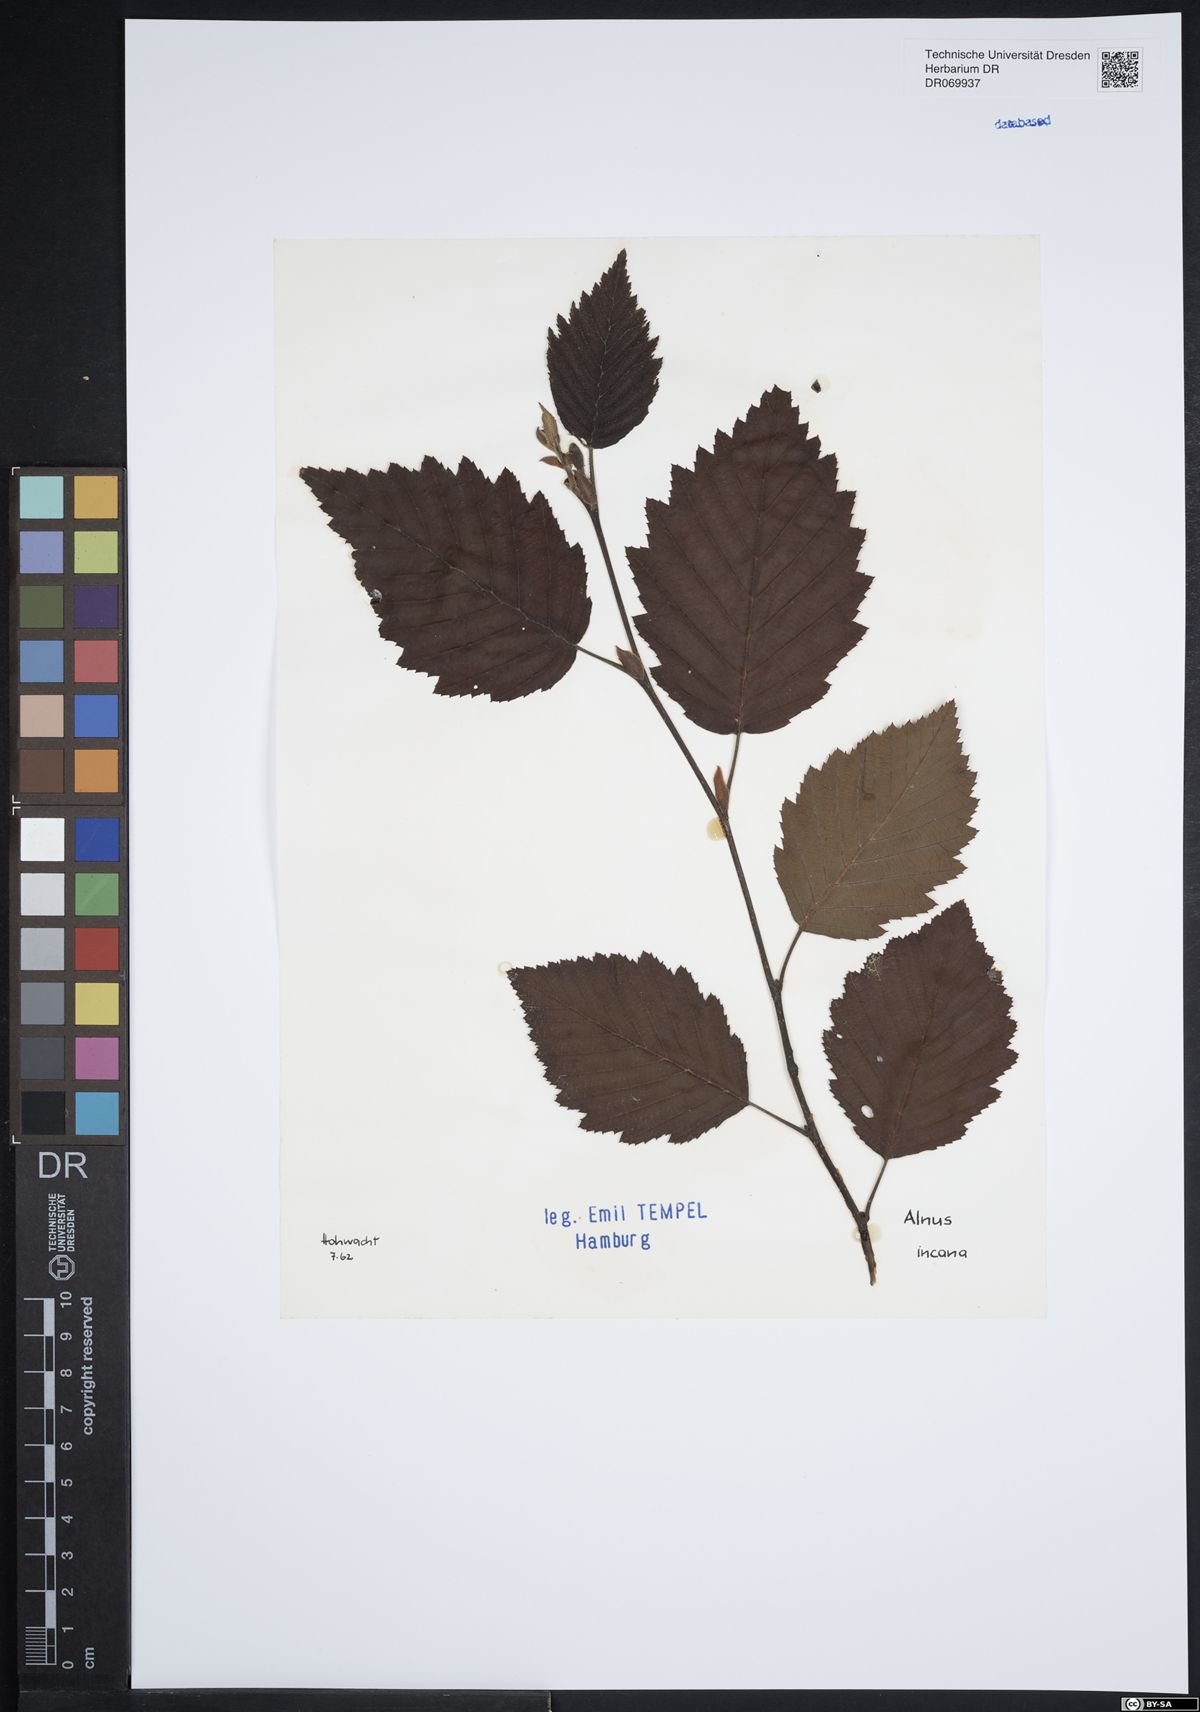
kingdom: Plantae
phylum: Tracheophyta
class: Magnoliopsida
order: Fagales
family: Betulaceae
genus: Alnus
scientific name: Alnus incana
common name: Grey alder
